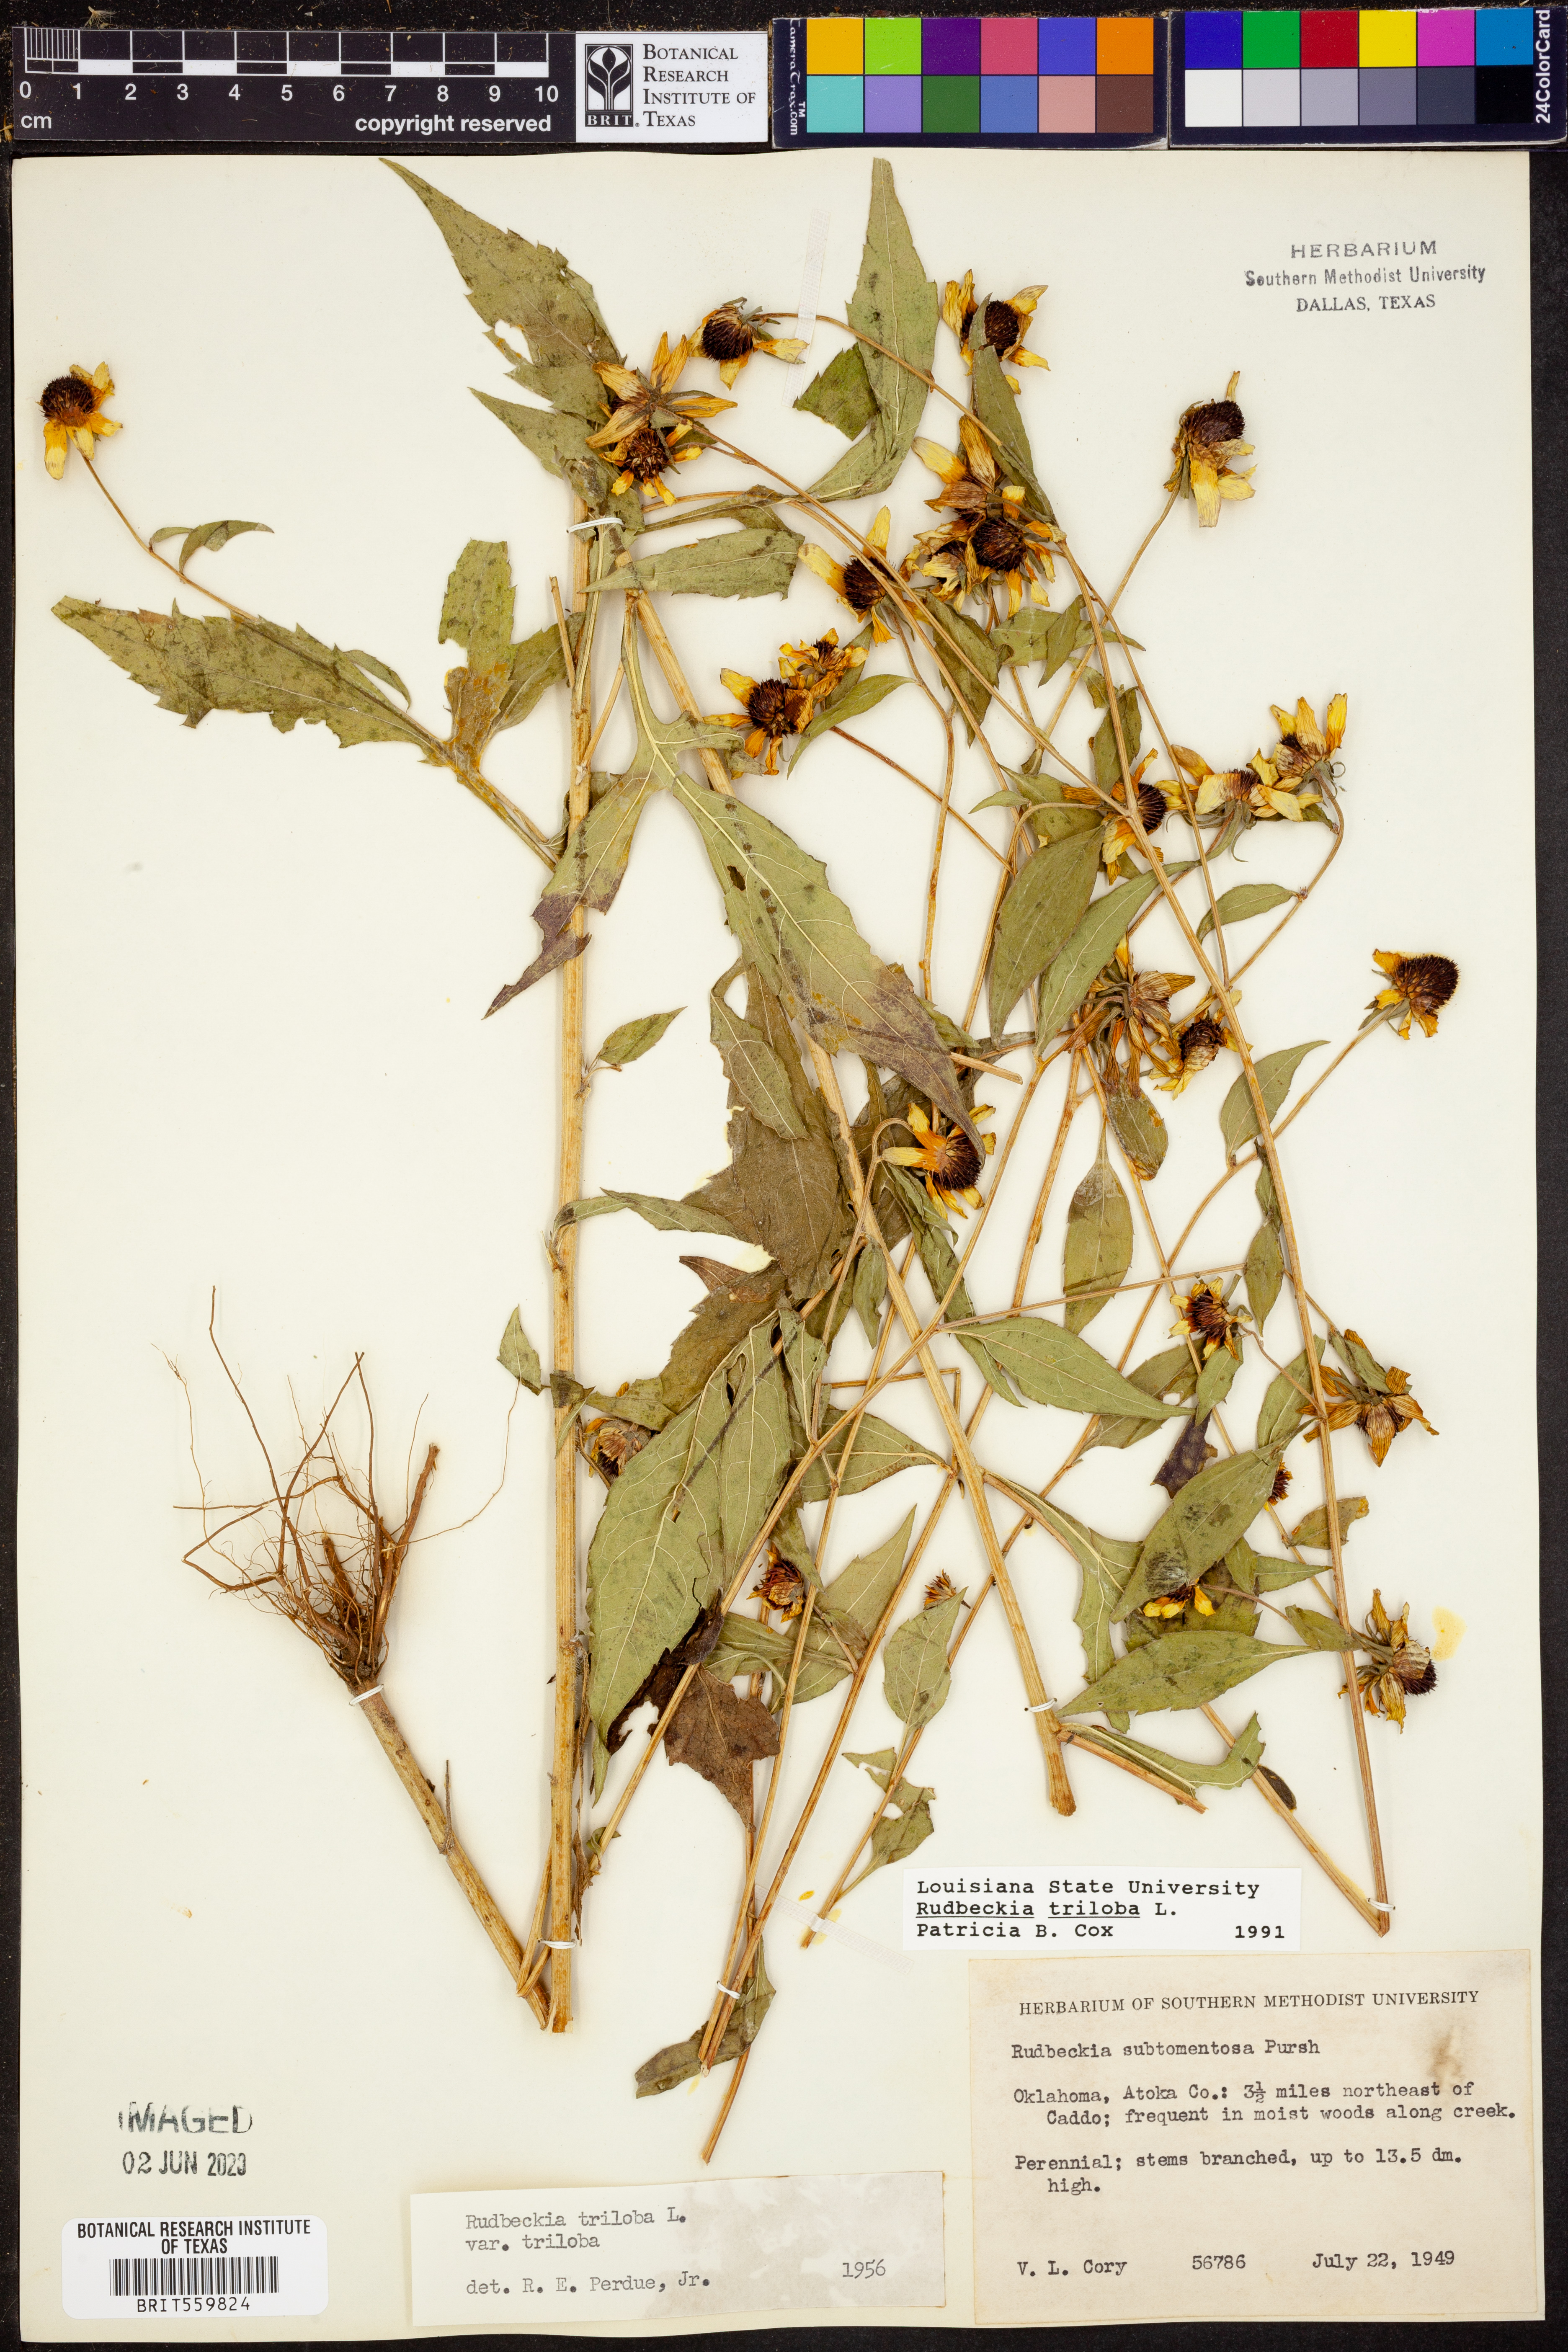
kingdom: Plantae
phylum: Tracheophyta
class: Magnoliopsida
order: Asterales
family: Asteraceae
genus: Rudbeckia
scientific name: Rudbeckia triloba
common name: Thin-leaved coneflower
